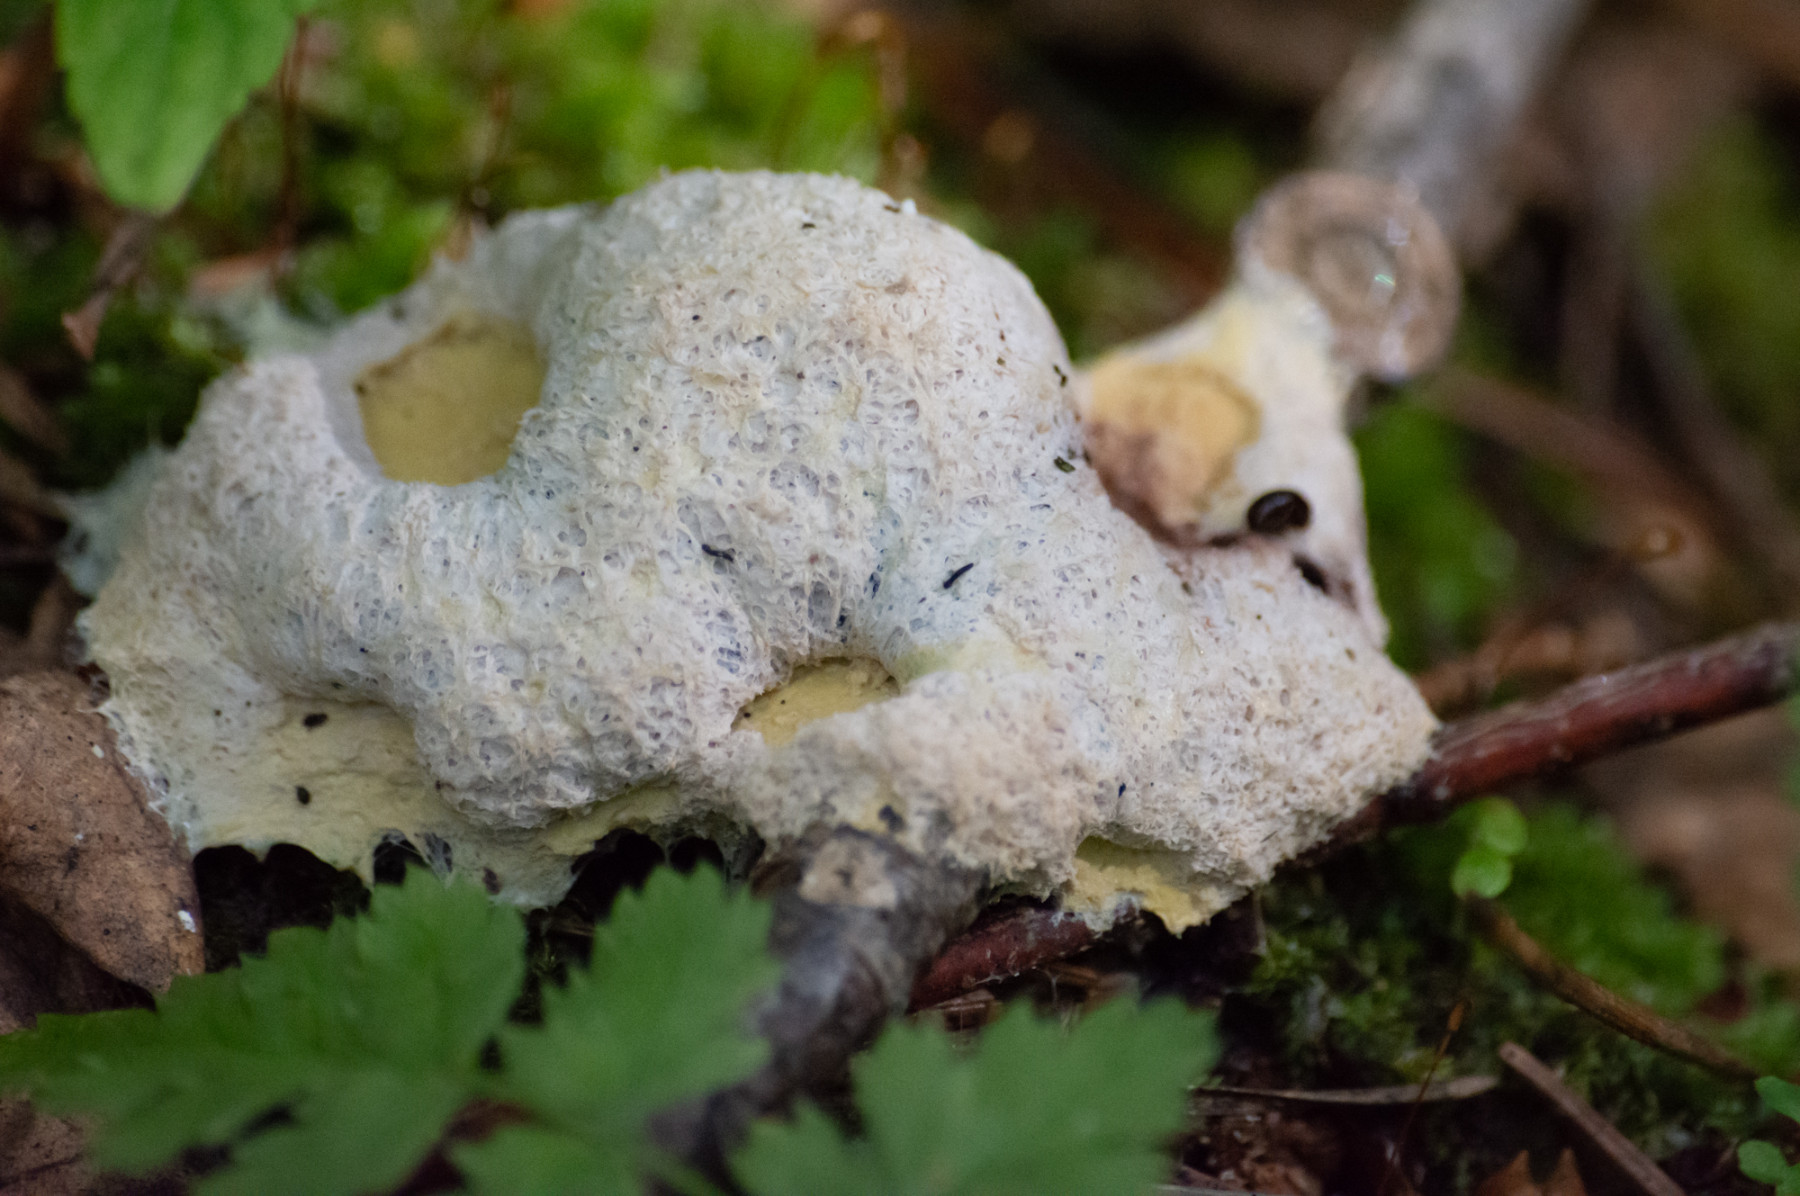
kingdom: Protozoa
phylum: Mycetozoa
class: Myxomycetes
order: Physarales
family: Physaraceae
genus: Fuligo
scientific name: Fuligo septica
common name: gul troldsmør
